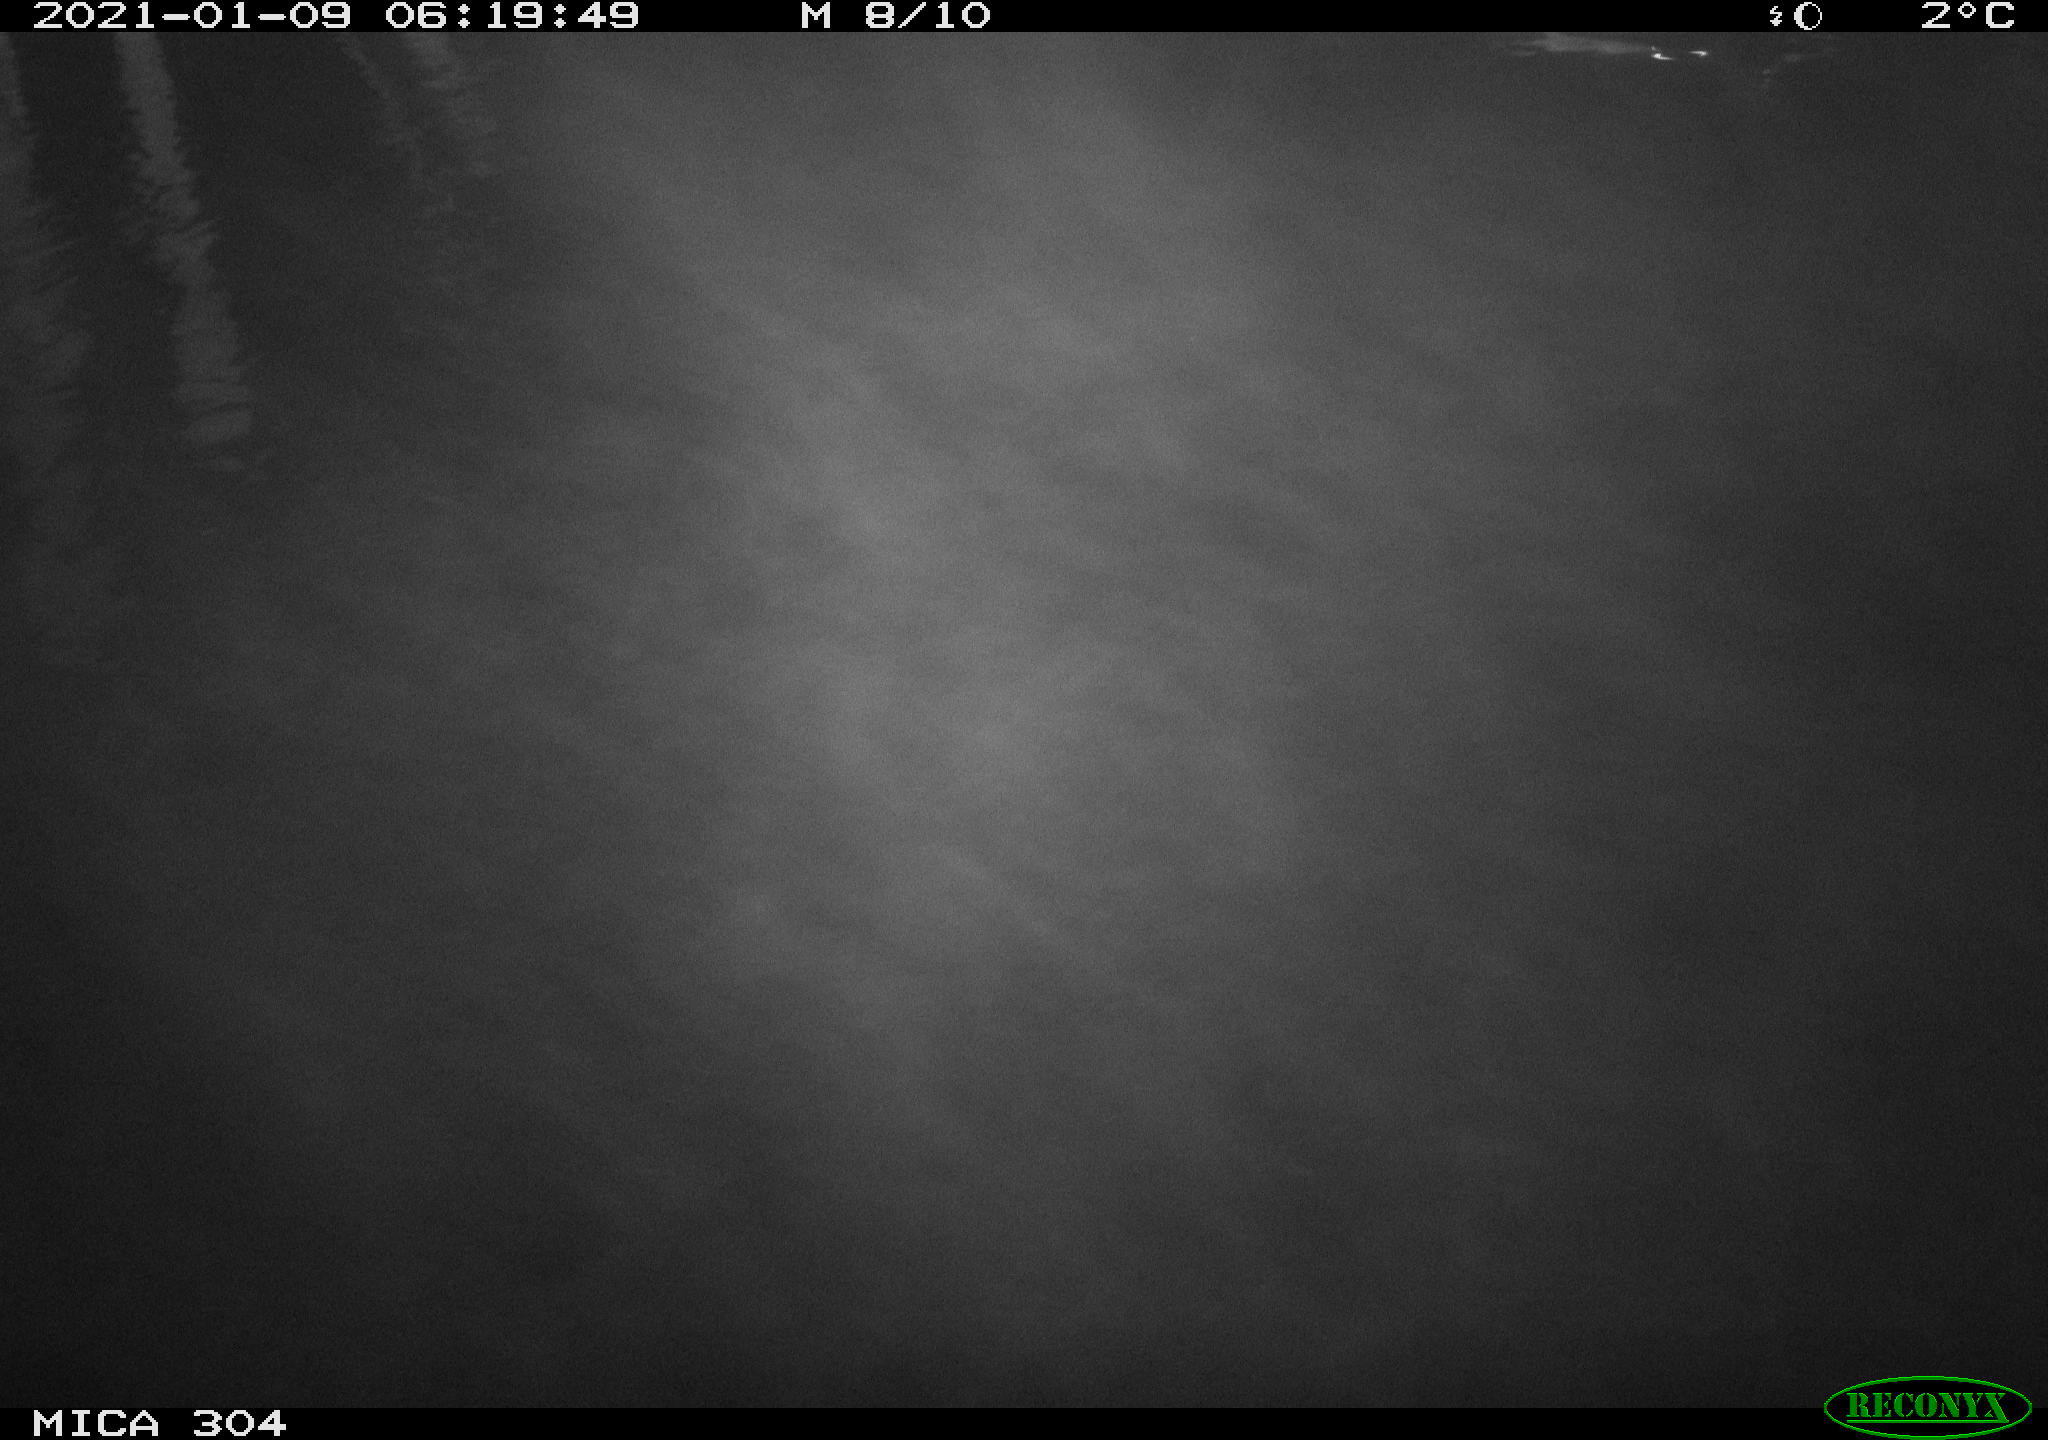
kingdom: Animalia
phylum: Chordata
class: Aves
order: Anseriformes
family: Anatidae
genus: Anas
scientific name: Anas platyrhynchos
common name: Mallard
